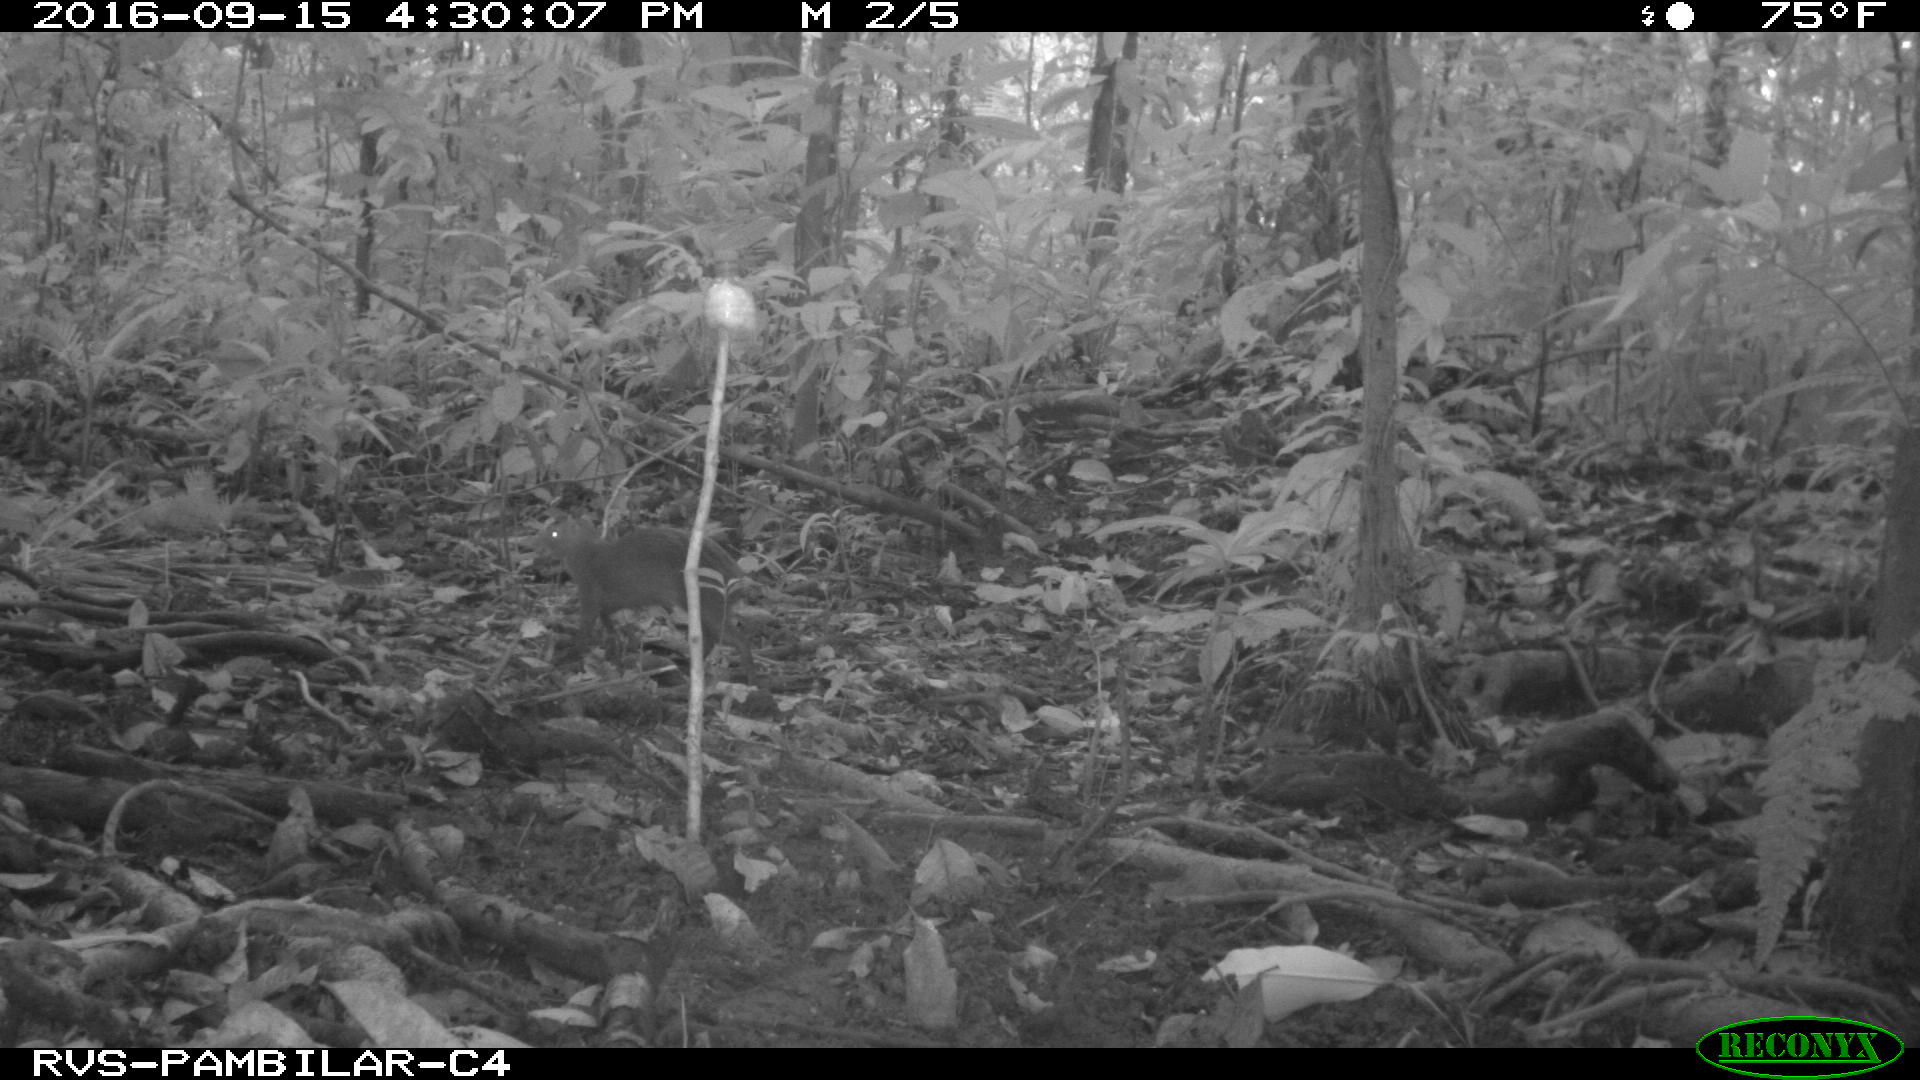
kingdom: Animalia
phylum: Chordata
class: Mammalia
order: Rodentia
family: Dasyproctidae
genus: Dasyprocta
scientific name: Dasyprocta punctata
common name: Central american agouti
